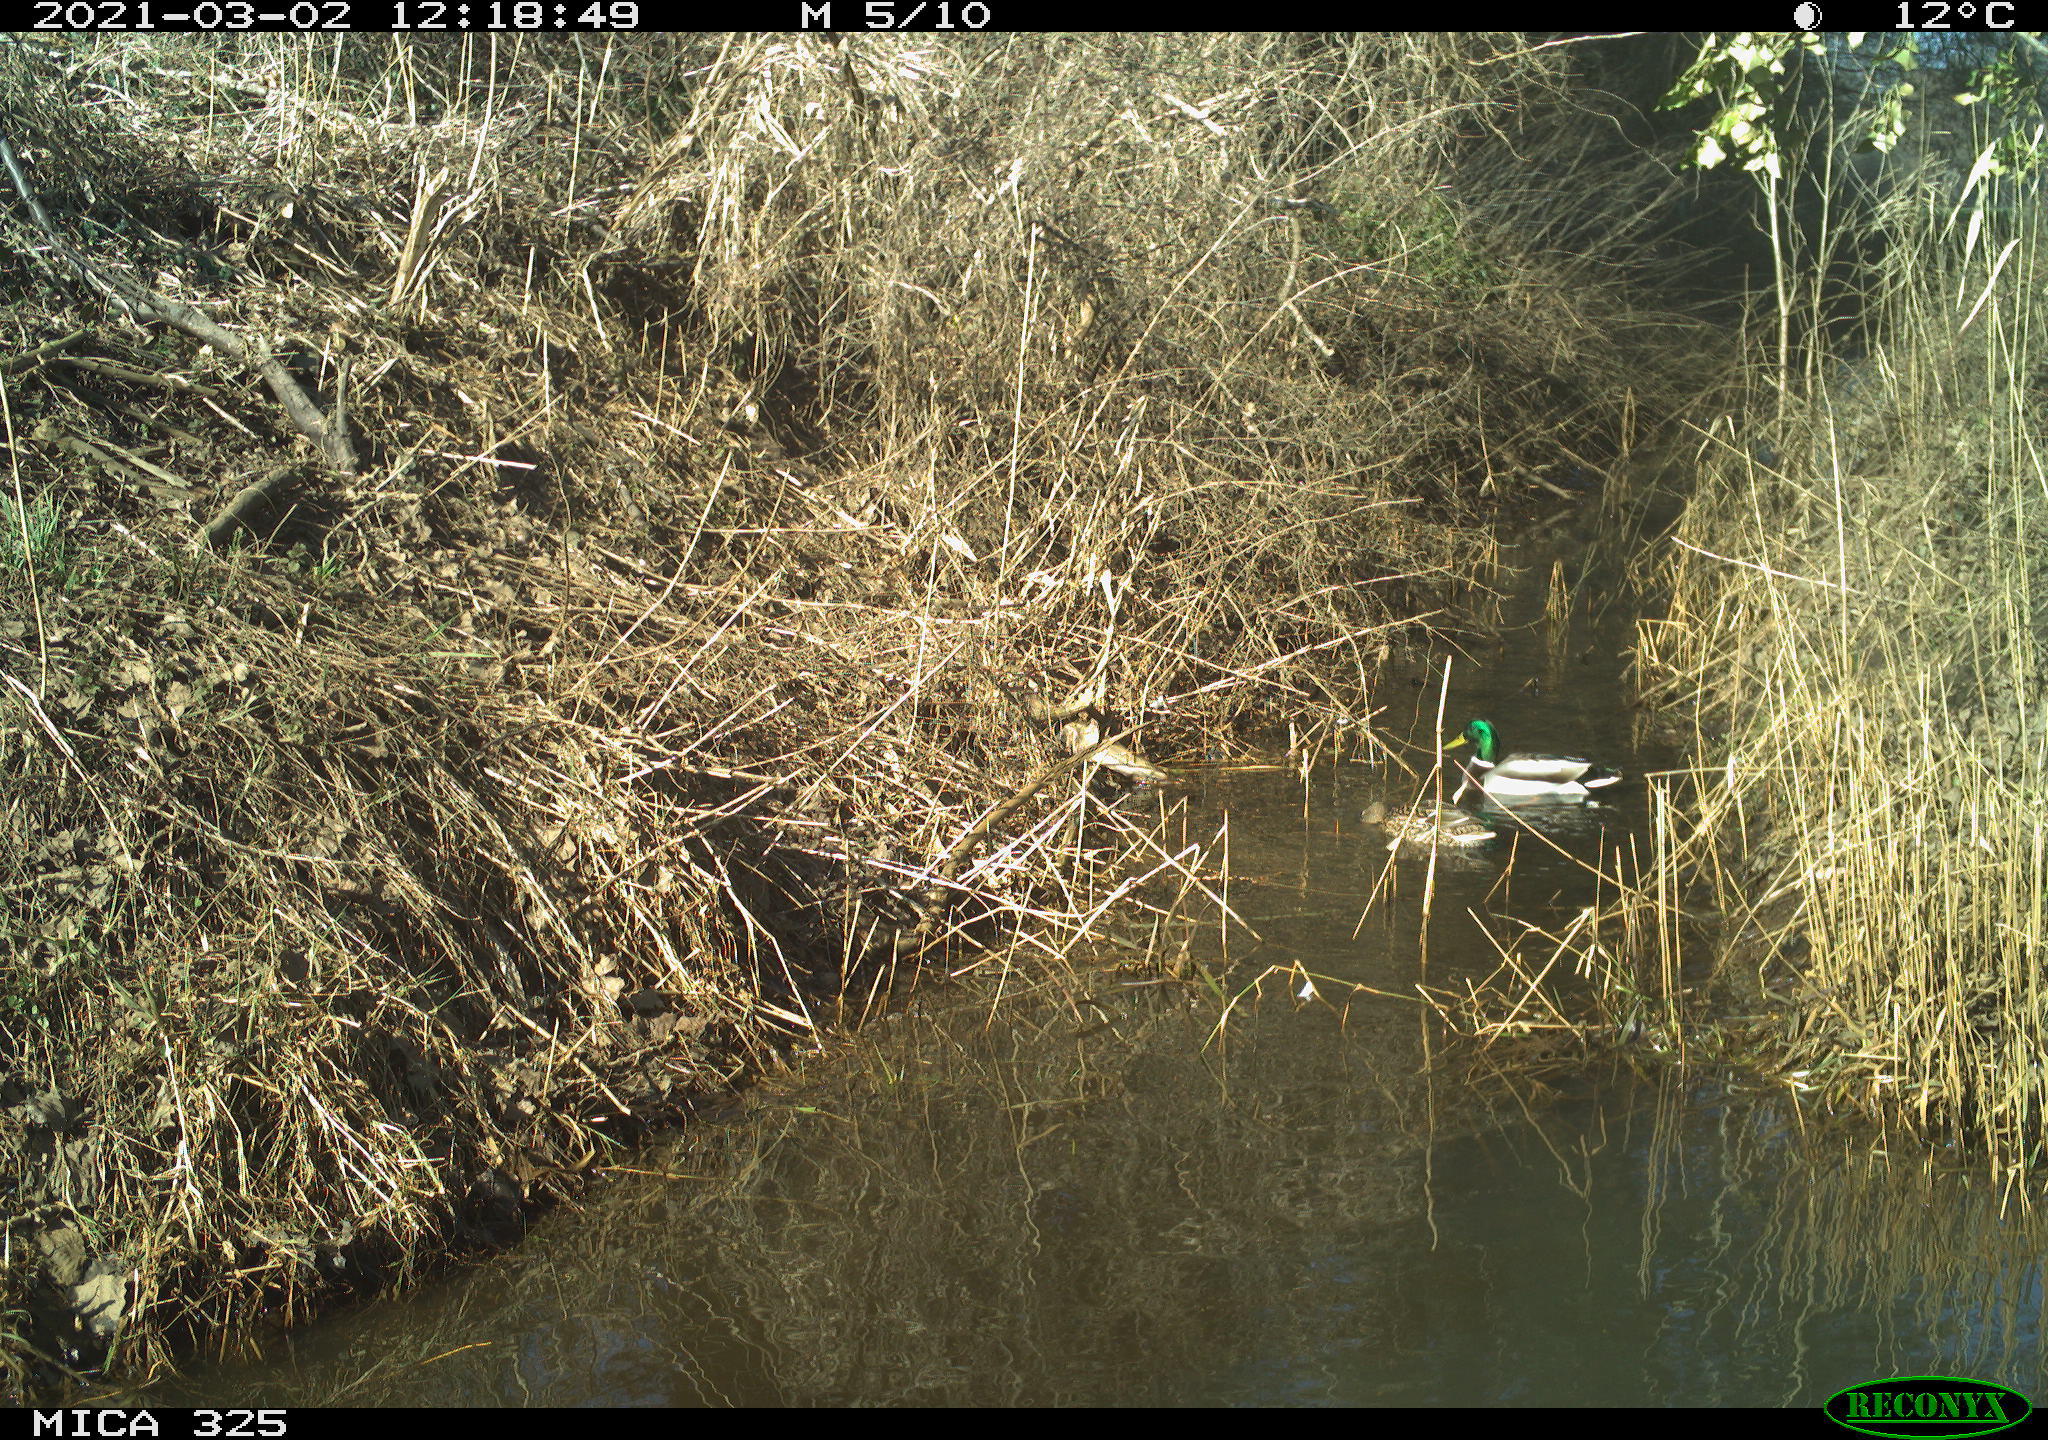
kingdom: Animalia
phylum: Chordata
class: Aves
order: Anseriformes
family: Anatidae
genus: Anas
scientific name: Anas platyrhynchos
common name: Mallard
